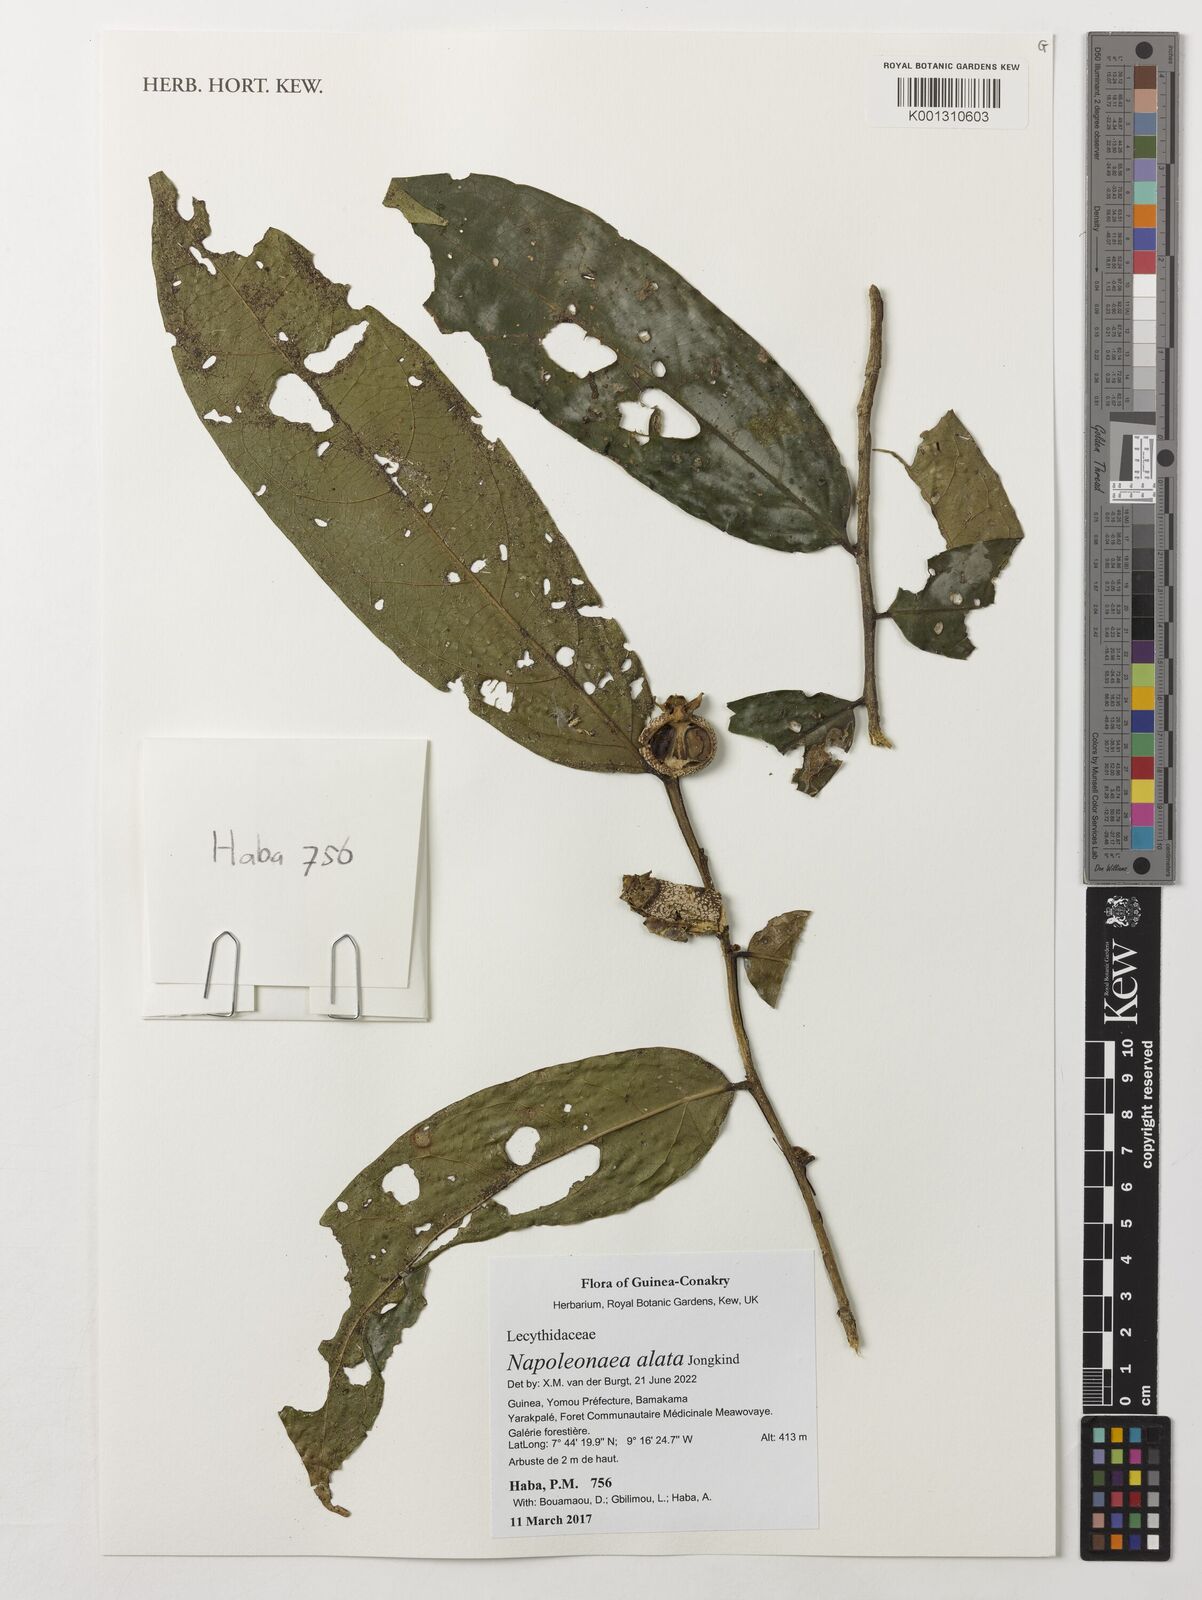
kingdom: Plantae
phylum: Tracheophyta
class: Magnoliopsida
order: Ericales
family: Lecythidaceae
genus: Napoleonaea
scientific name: Napoleonaea alata
